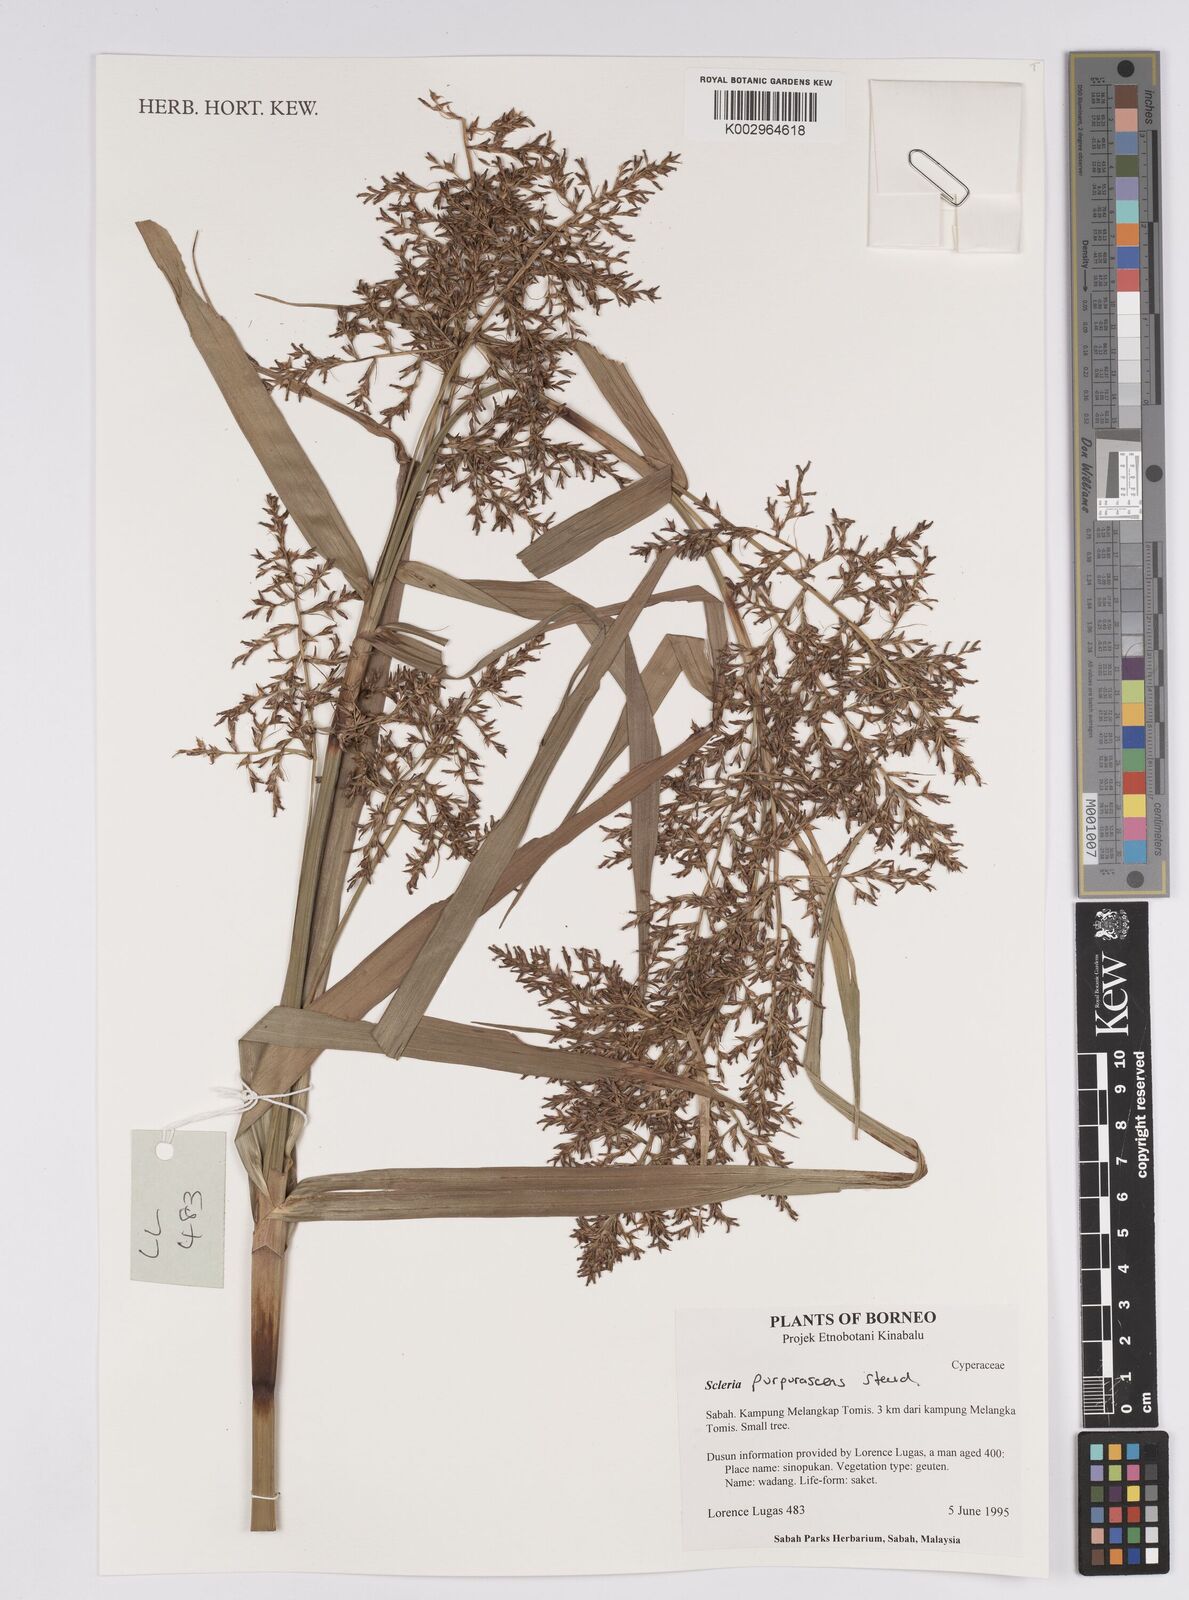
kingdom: Plantae
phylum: Tracheophyta
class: Liliopsida
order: Poales
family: Cyperaceae
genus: Scleria
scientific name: Scleria purpurascens
